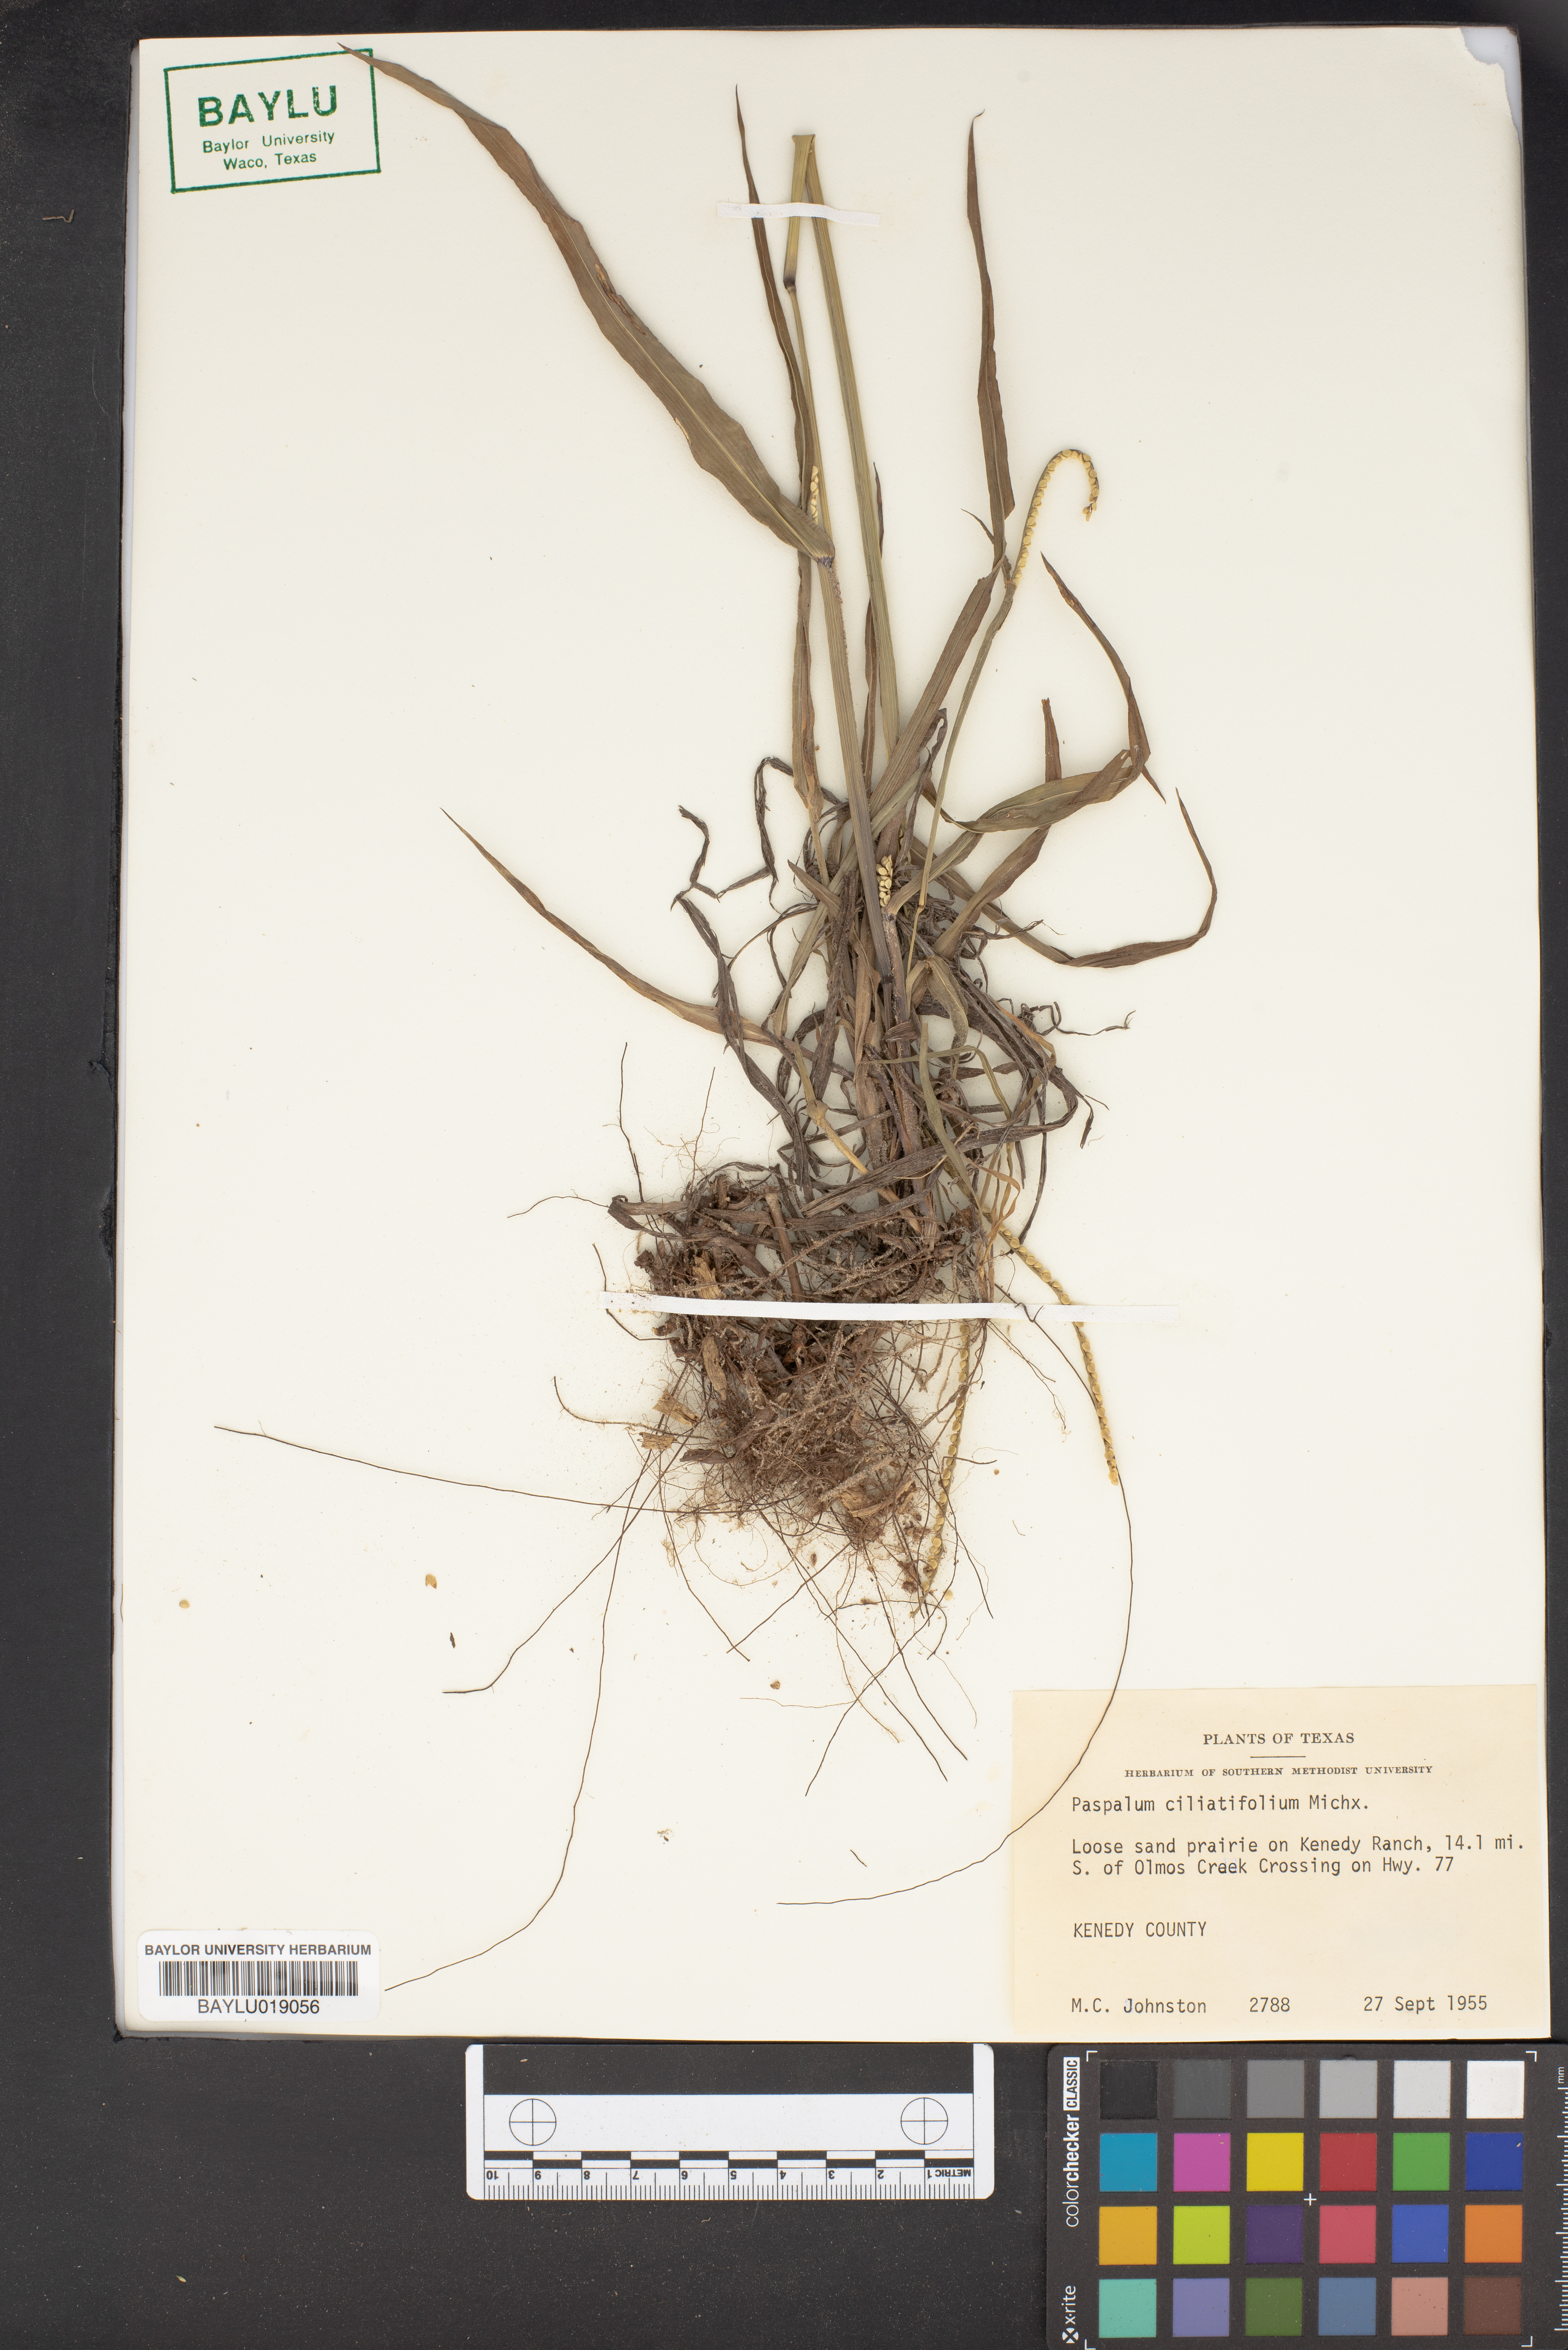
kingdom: Plantae
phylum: Tracheophyta
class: Liliopsida
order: Poales
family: Poaceae
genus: Paspalum
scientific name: Paspalum setaceum
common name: Slender paspalum
